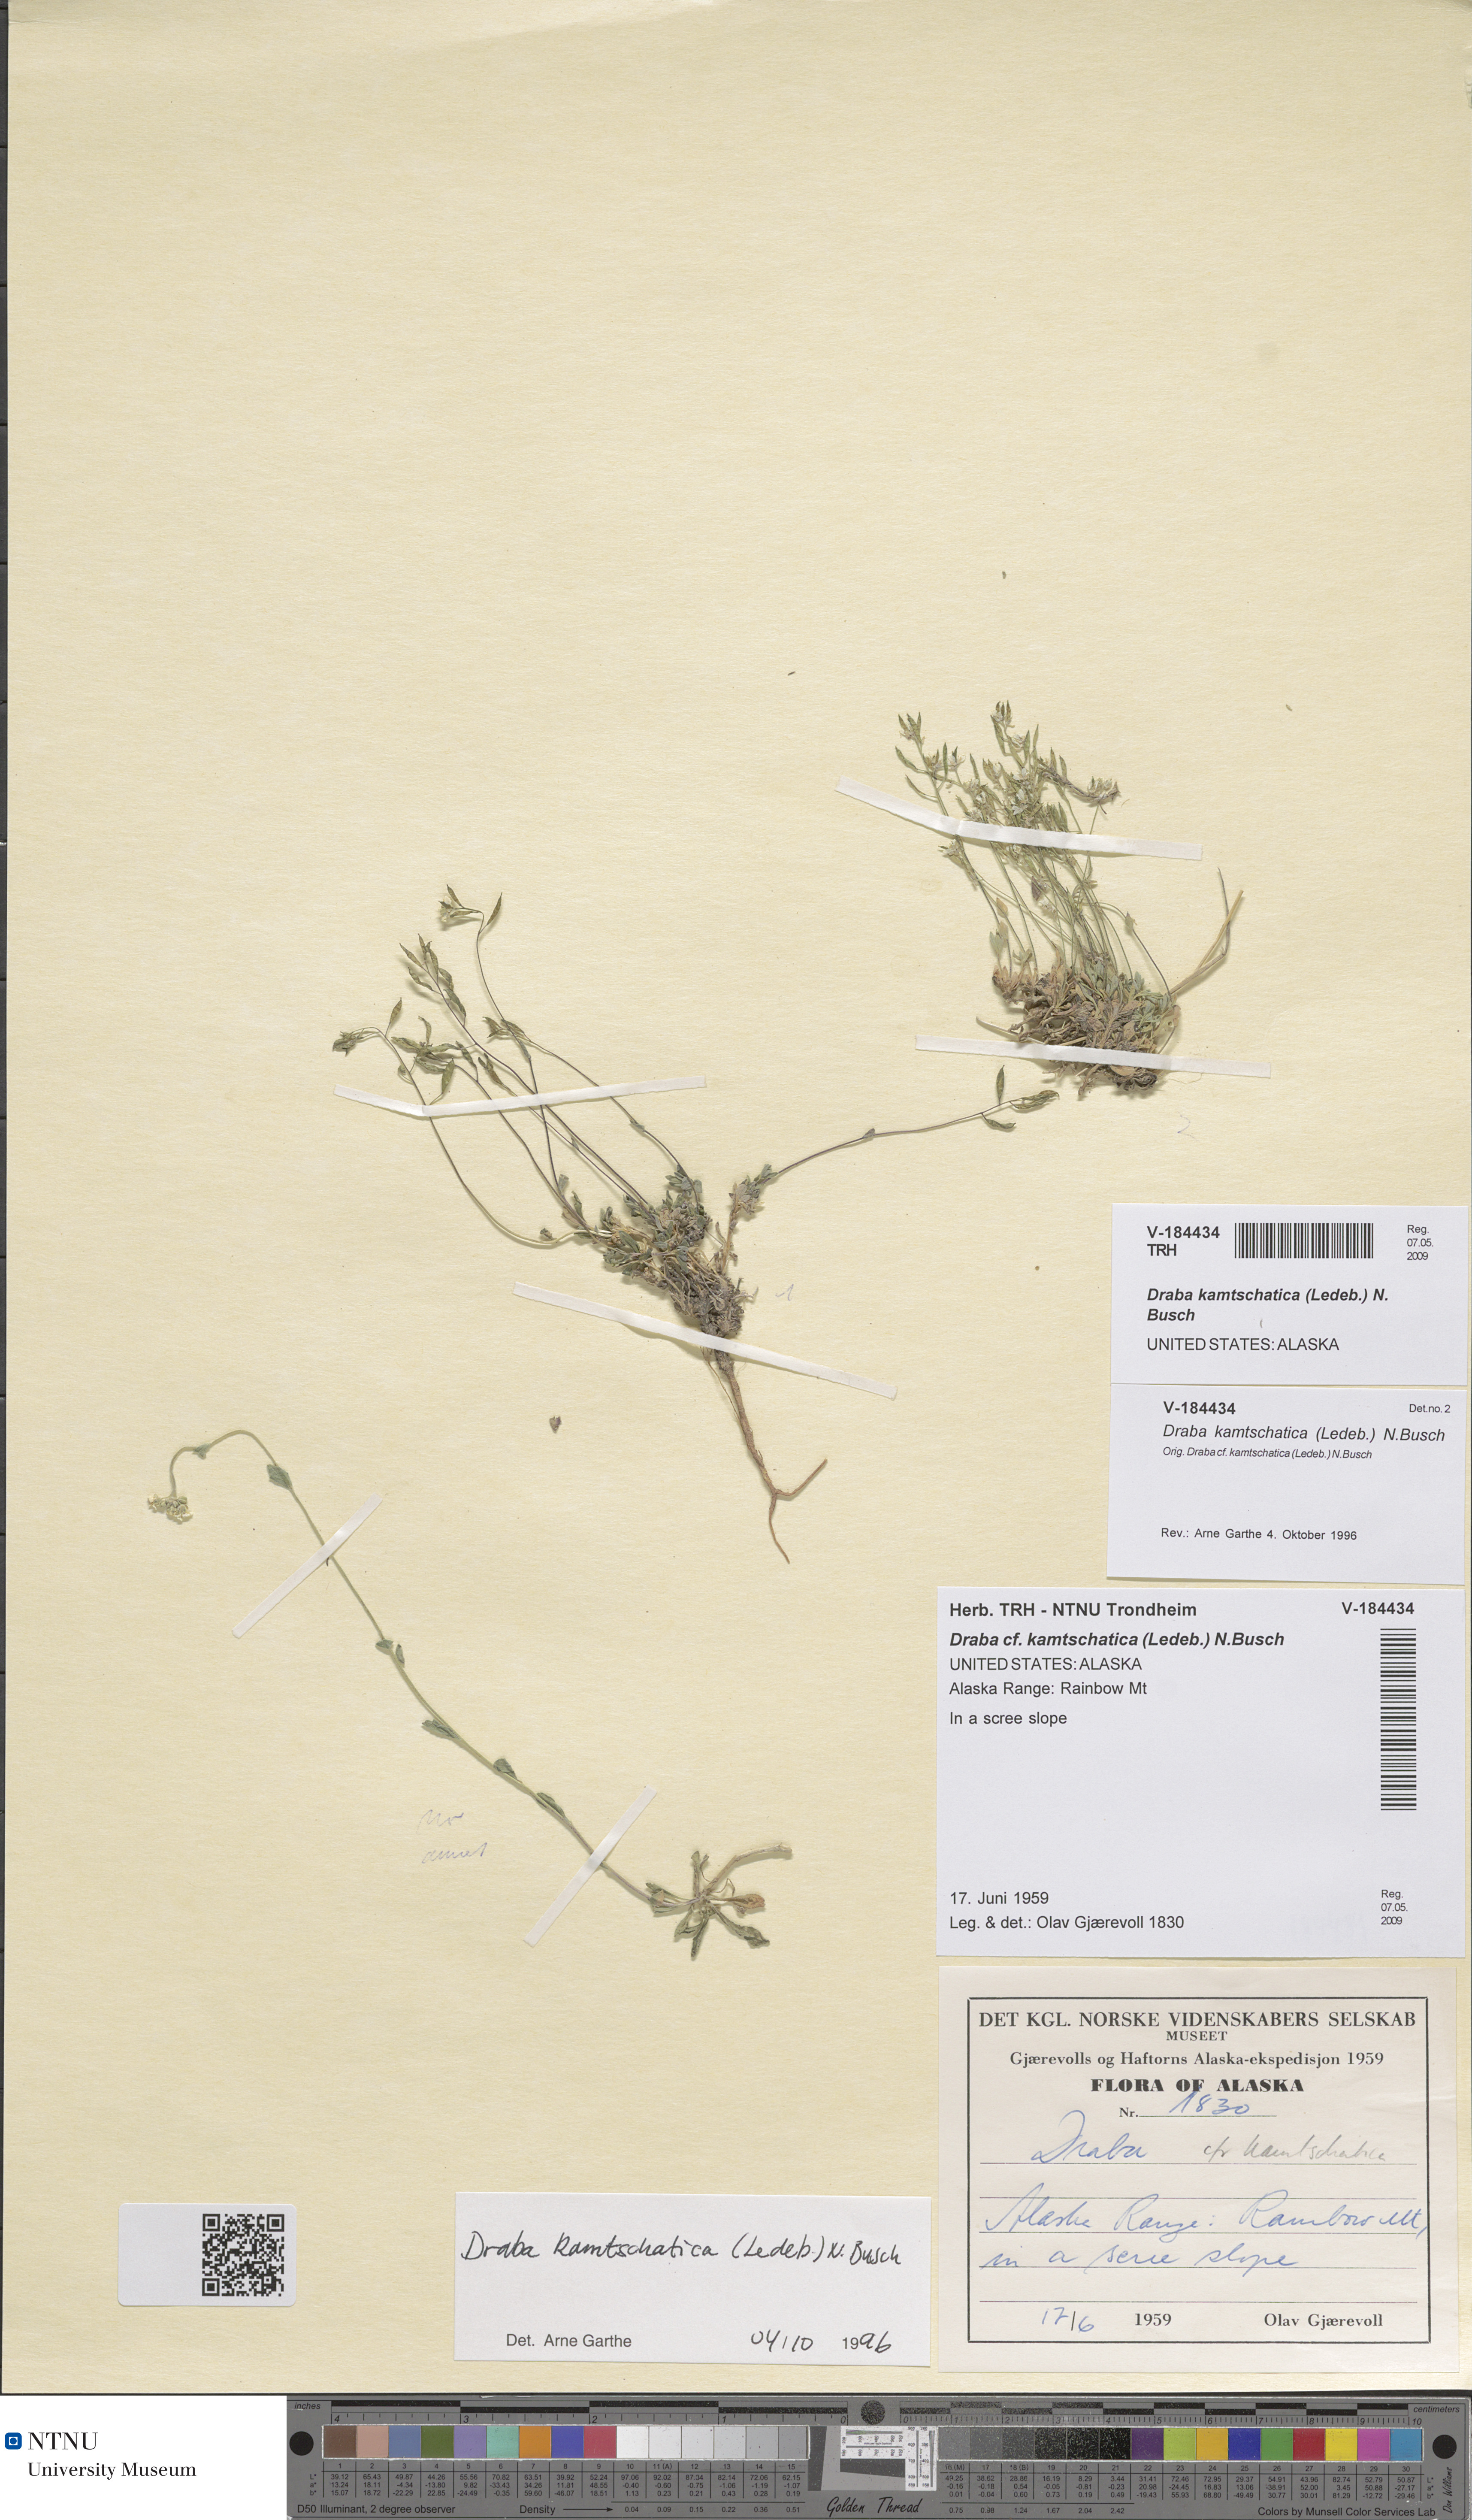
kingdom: Plantae
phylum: Tracheophyta
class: Magnoliopsida
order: Brassicales
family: Brassicaceae
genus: Draba
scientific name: Draba chamissonis
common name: Cape thompson draba
